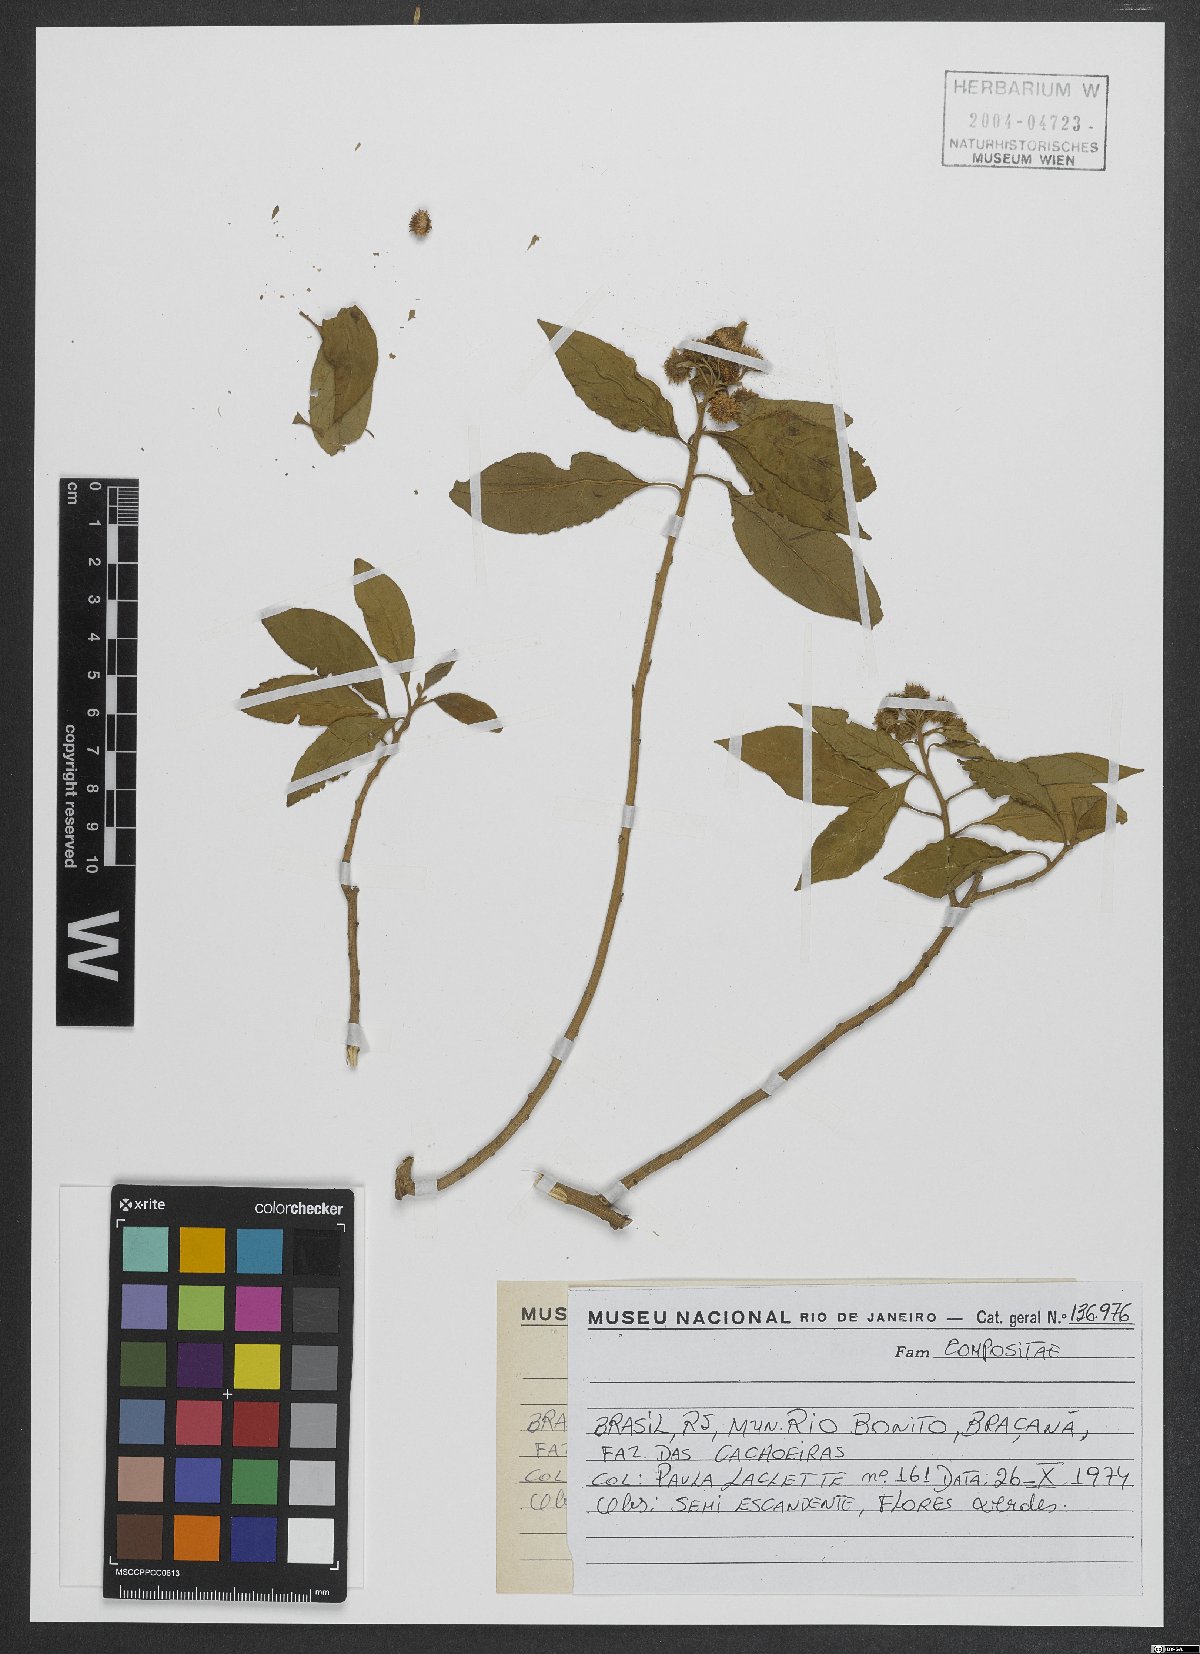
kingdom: Plantae
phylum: Tracheophyta
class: Magnoliopsida
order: Asterales
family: Asteraceae
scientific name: Asteraceae
